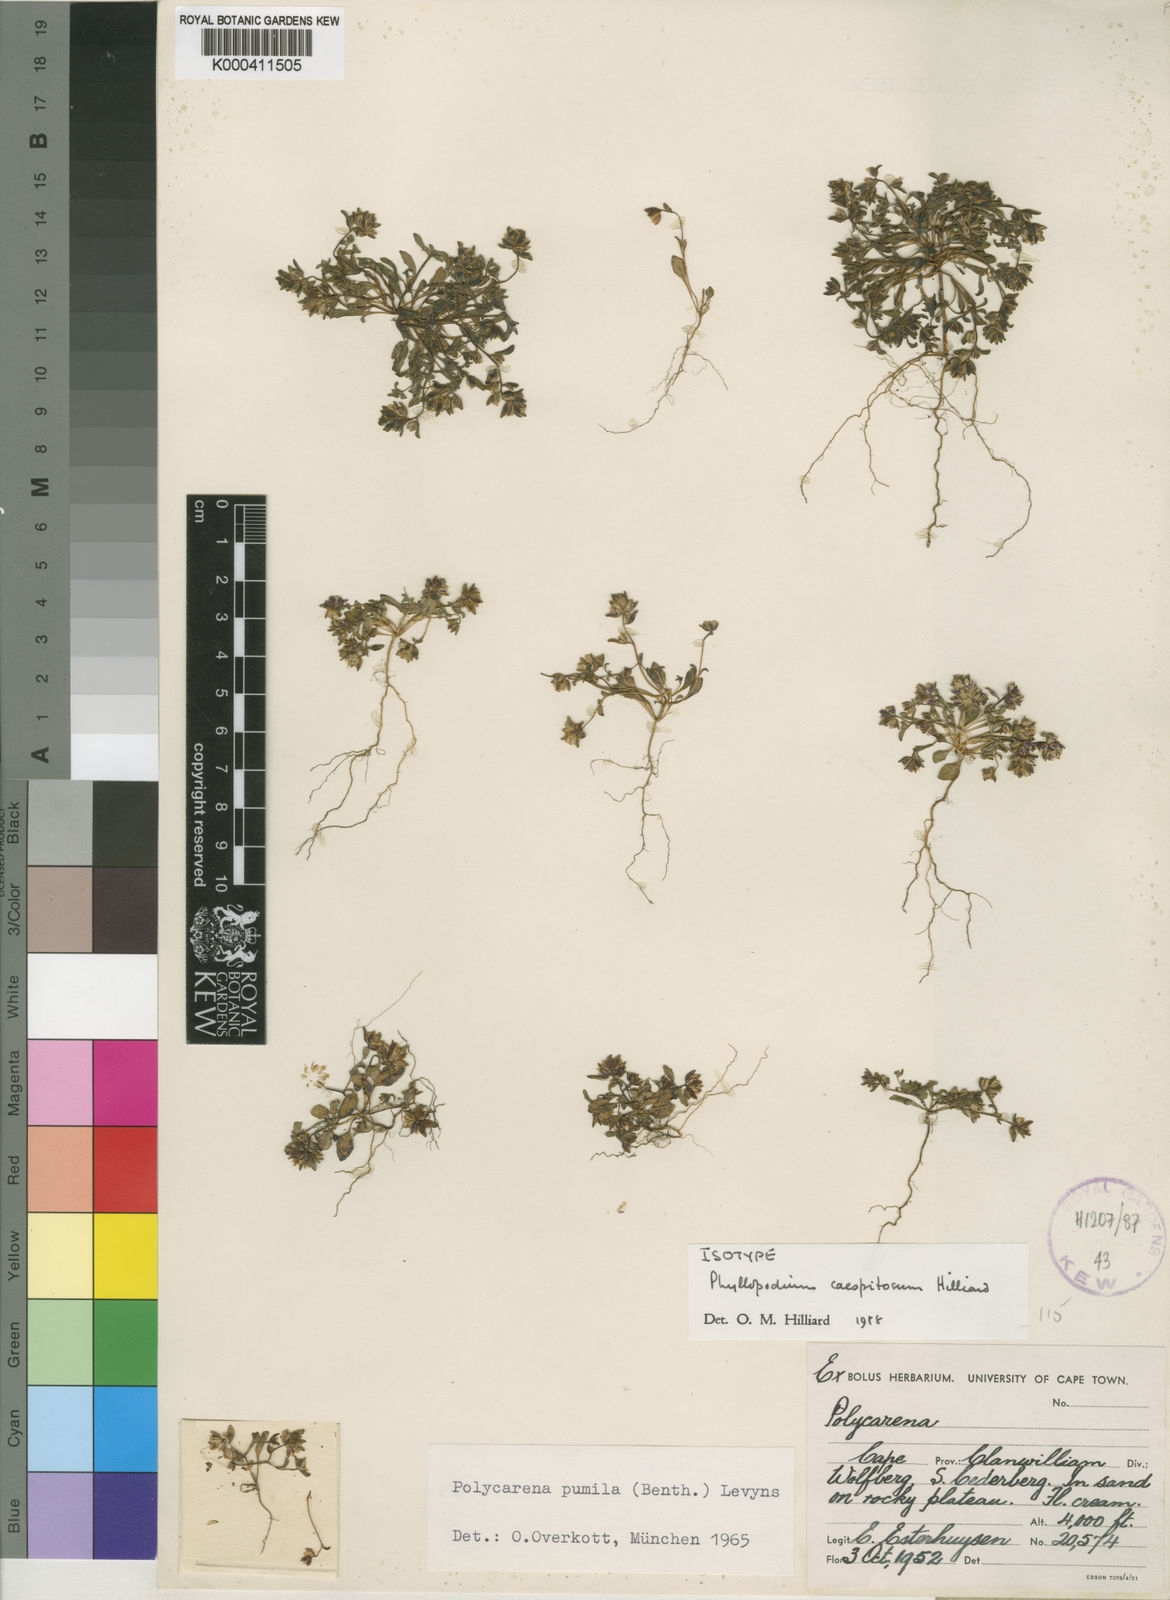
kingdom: Plantae
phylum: Tracheophyta
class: Magnoliopsida
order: Lamiales
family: Scrophulariaceae
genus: Phyllopodium
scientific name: Phyllopodium caespitosum
